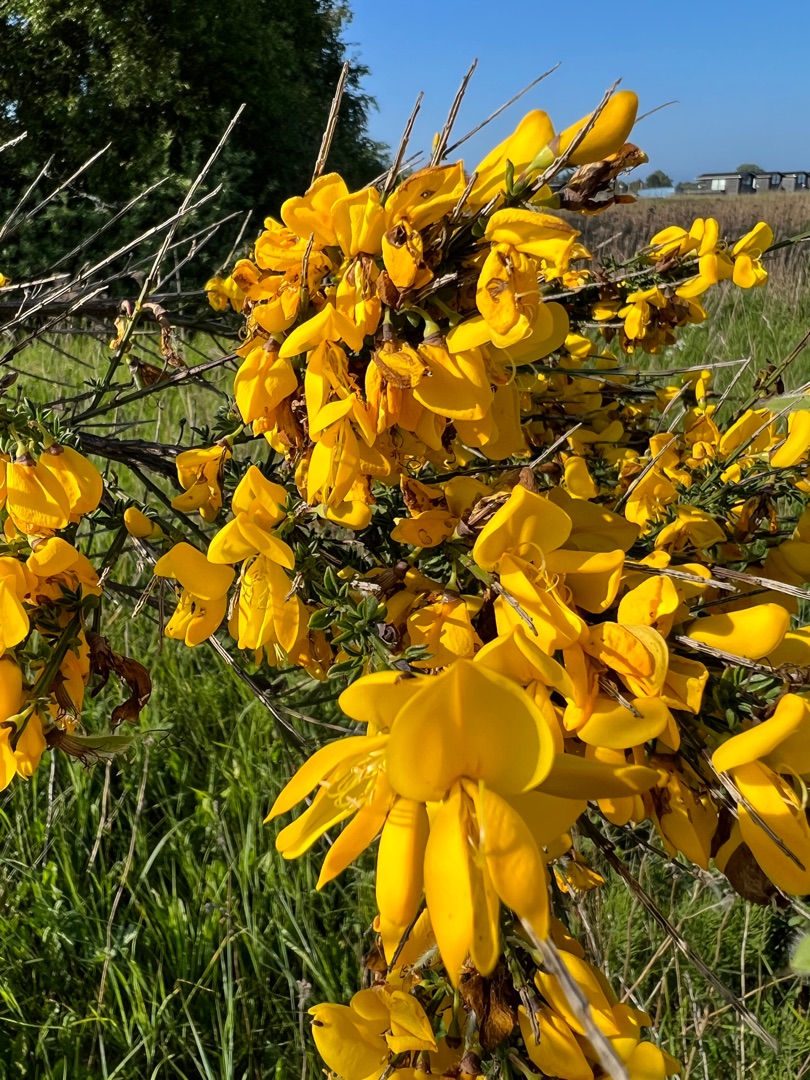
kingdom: Plantae
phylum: Tracheophyta
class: Magnoliopsida
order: Fabales
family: Fabaceae
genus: Cytisus
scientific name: Cytisus scoparius
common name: Almindelig gyvel
